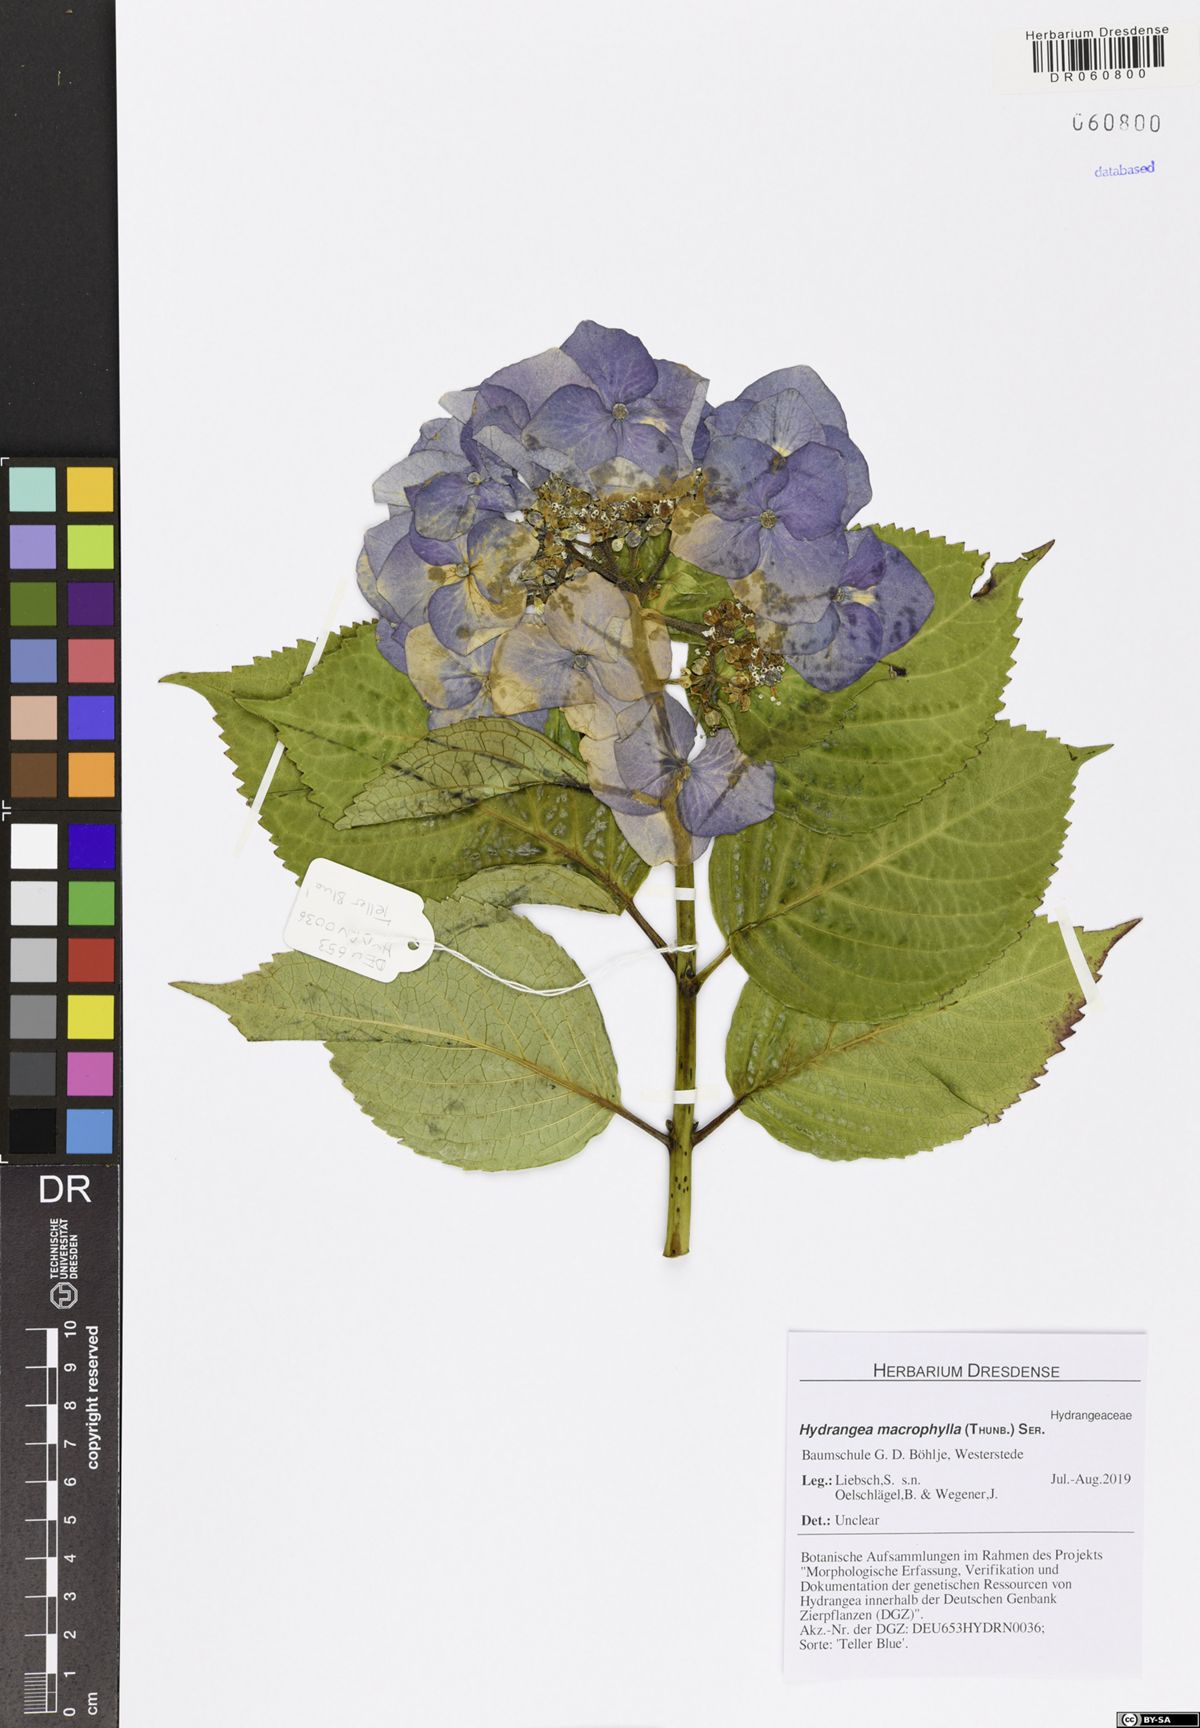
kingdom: Plantae
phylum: Tracheophyta
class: Magnoliopsida
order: Cornales
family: Hydrangeaceae
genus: Hydrangea
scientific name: Hydrangea macrophylla
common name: Hydrangea
